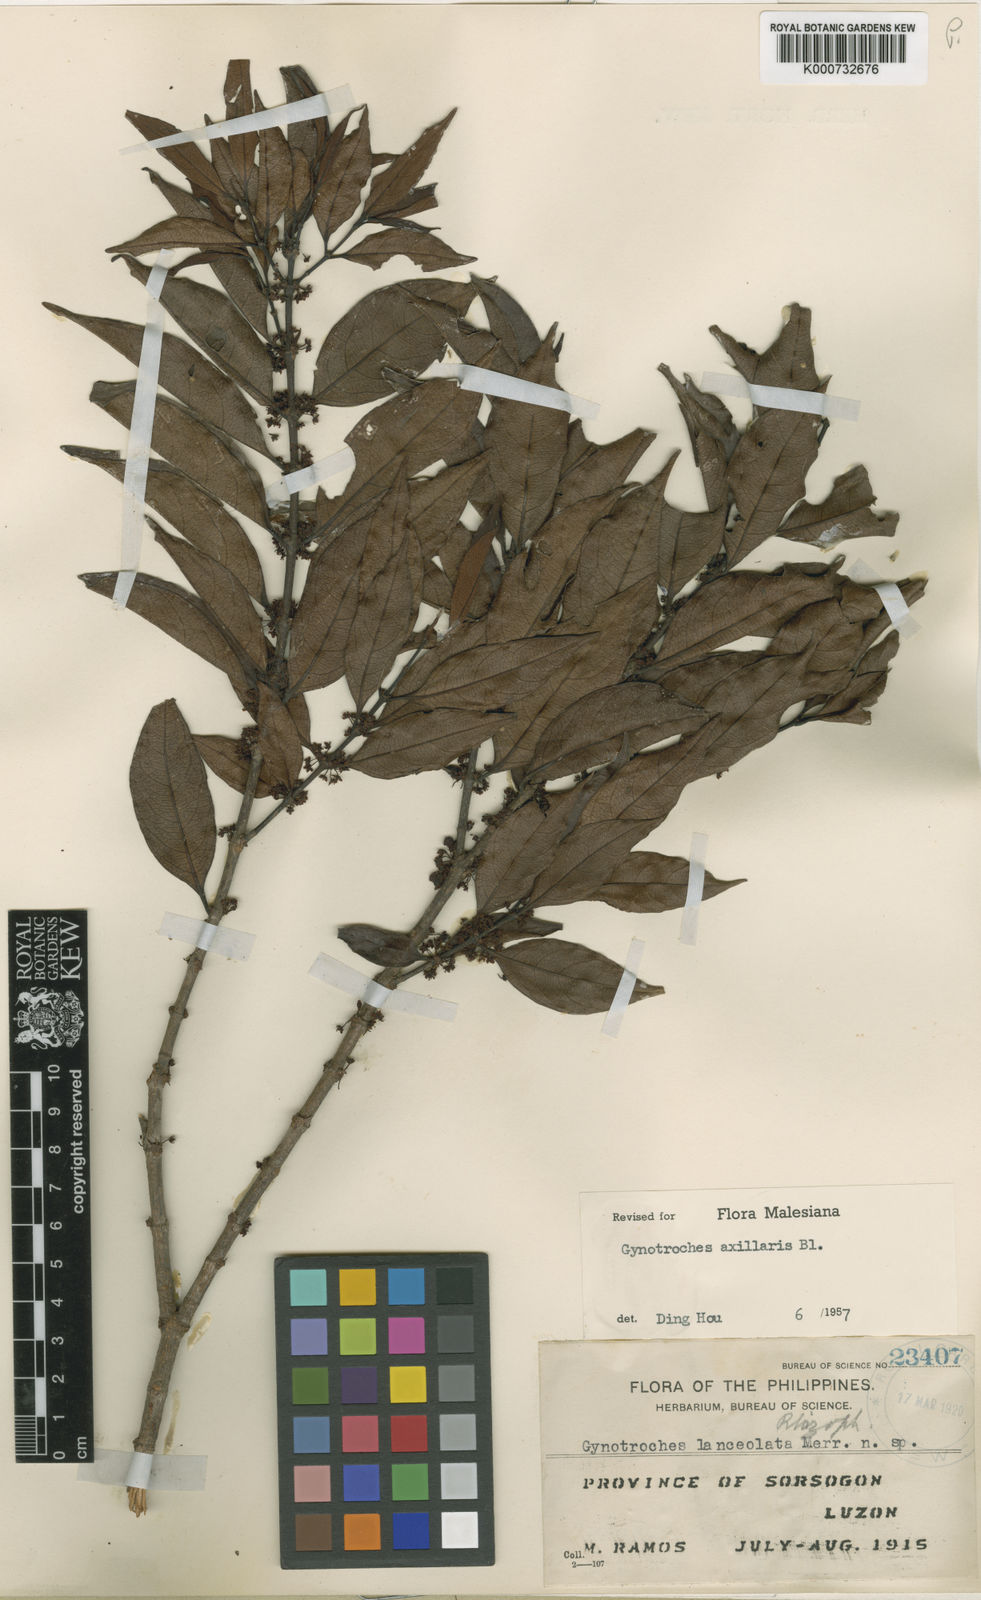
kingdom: Plantae
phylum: Tracheophyta
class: Magnoliopsida
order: Malpighiales
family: Rhizophoraceae
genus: Gynotroches
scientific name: Gynotroches axillaris
